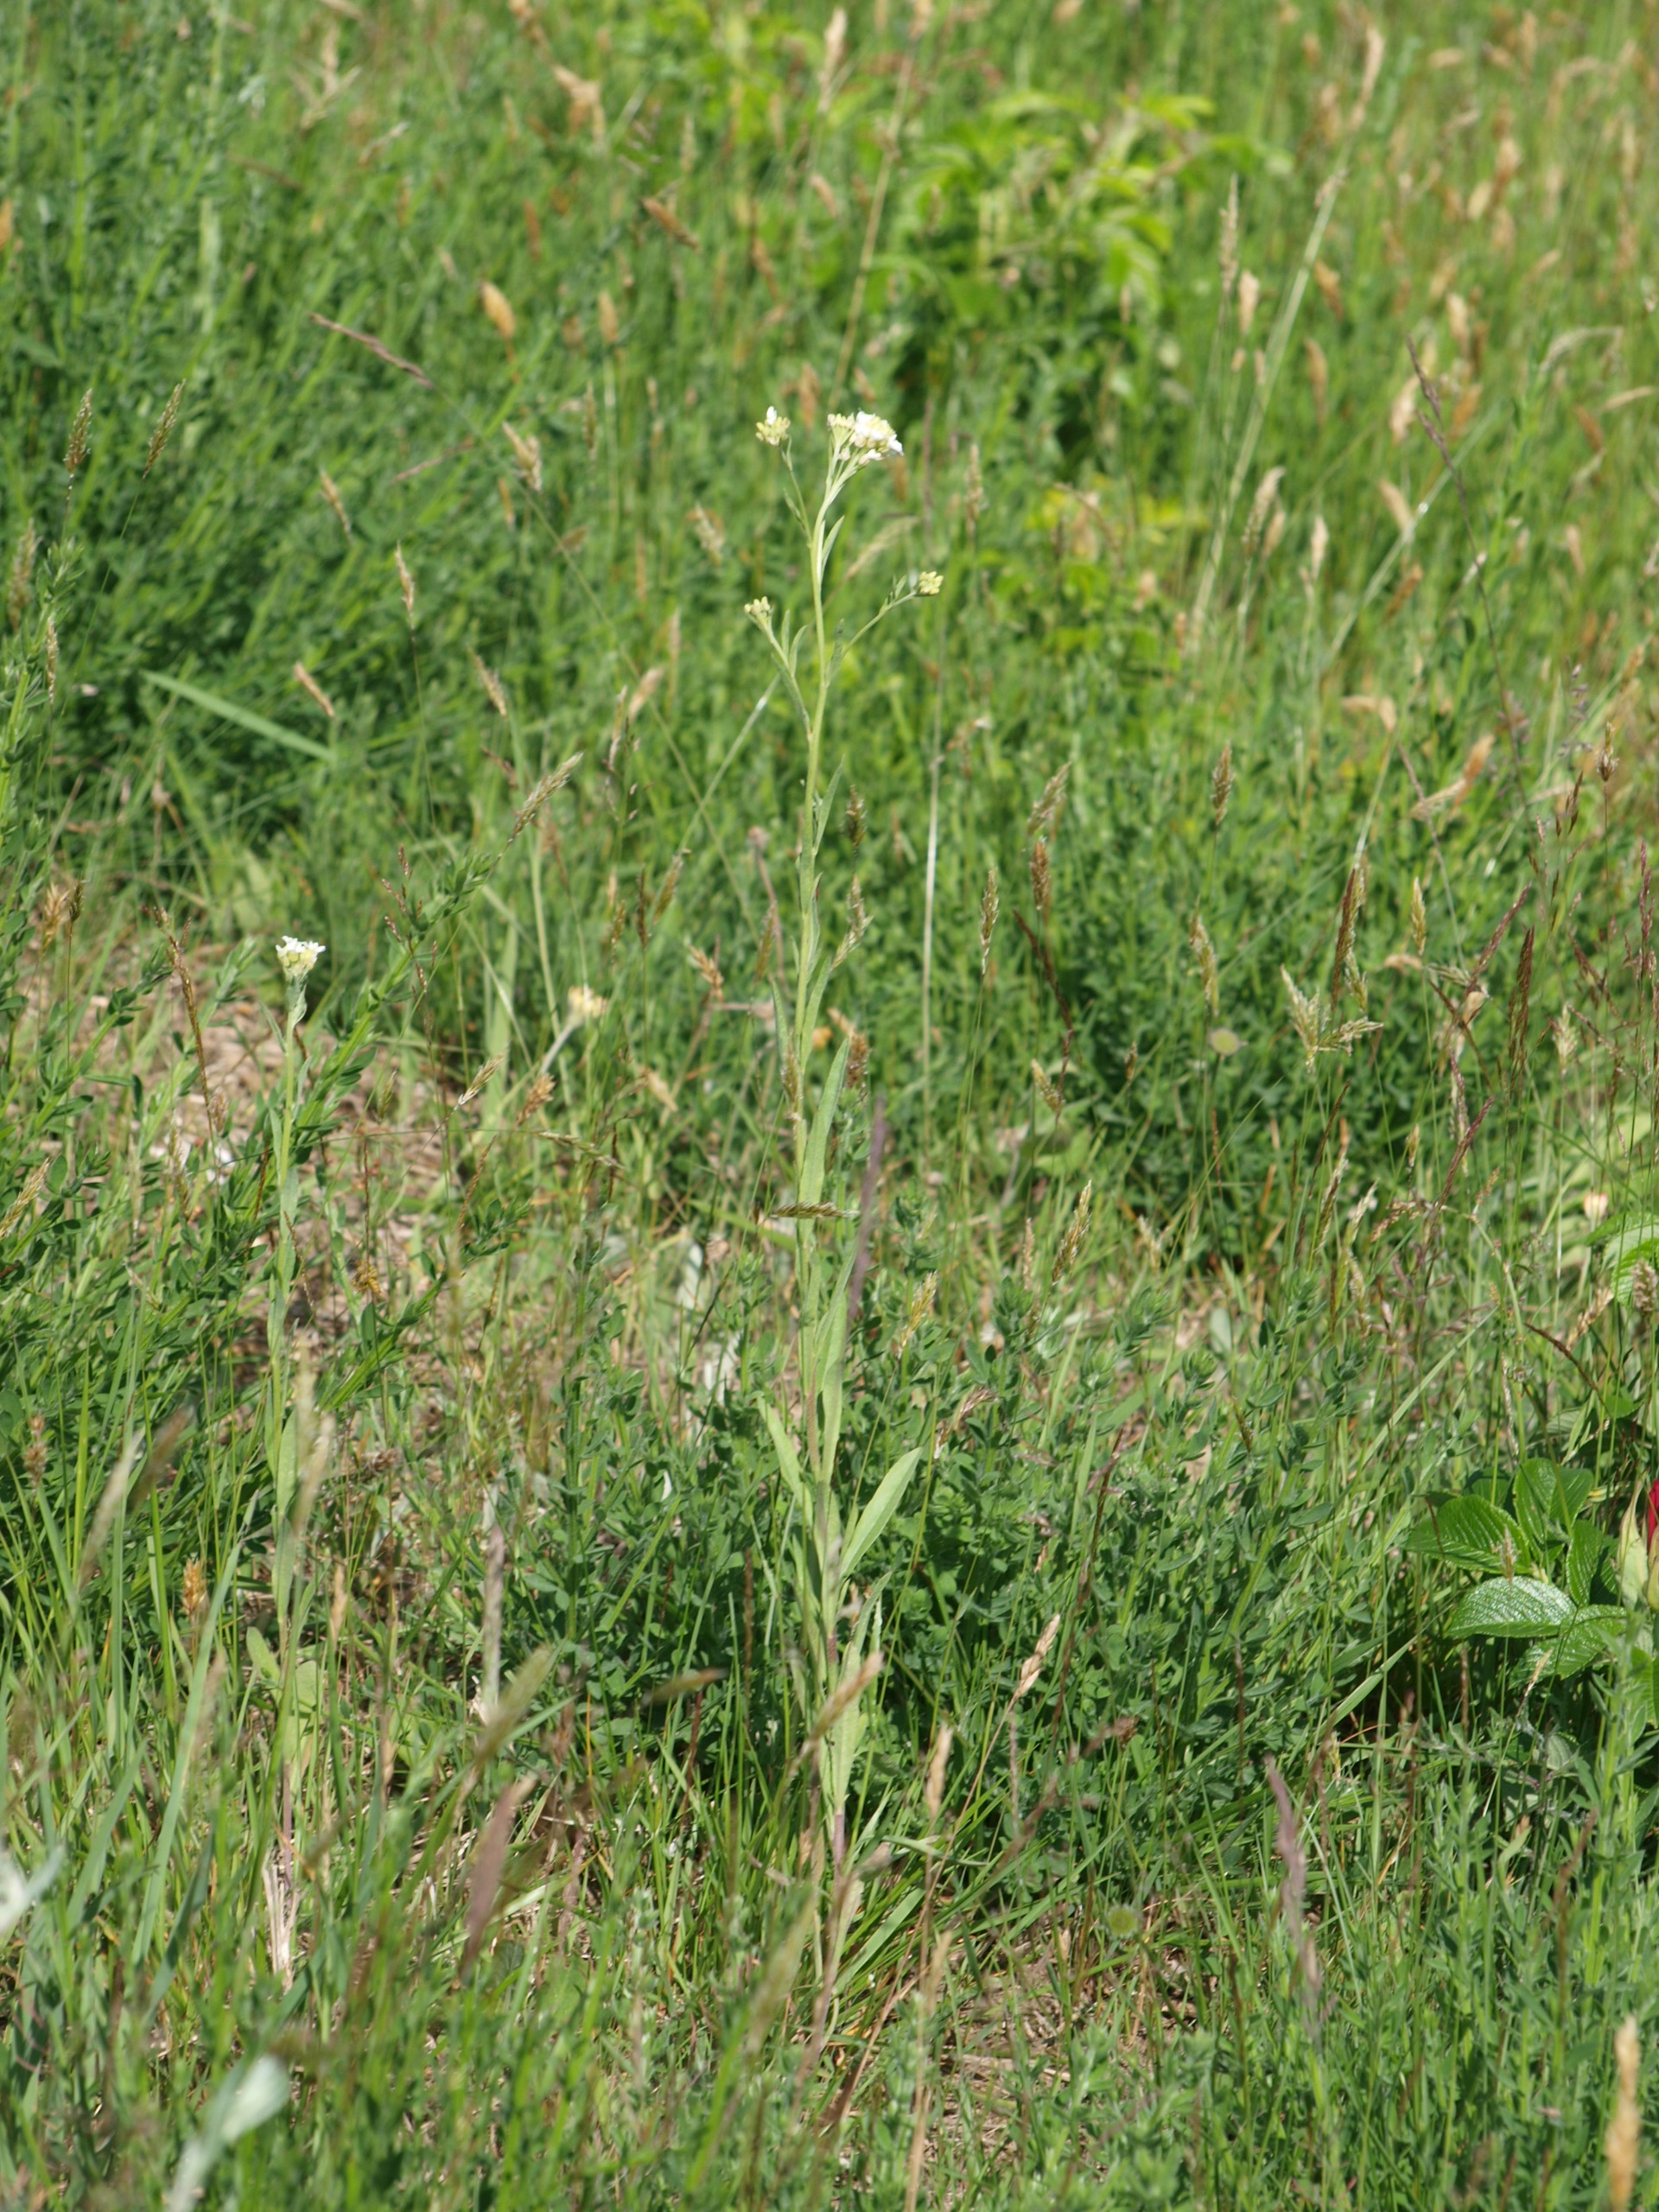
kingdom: Plantae
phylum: Tracheophyta
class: Magnoliopsida
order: Brassicales
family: Brassicaceae
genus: Berteroa
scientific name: Berteroa incana
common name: Kløvplade
